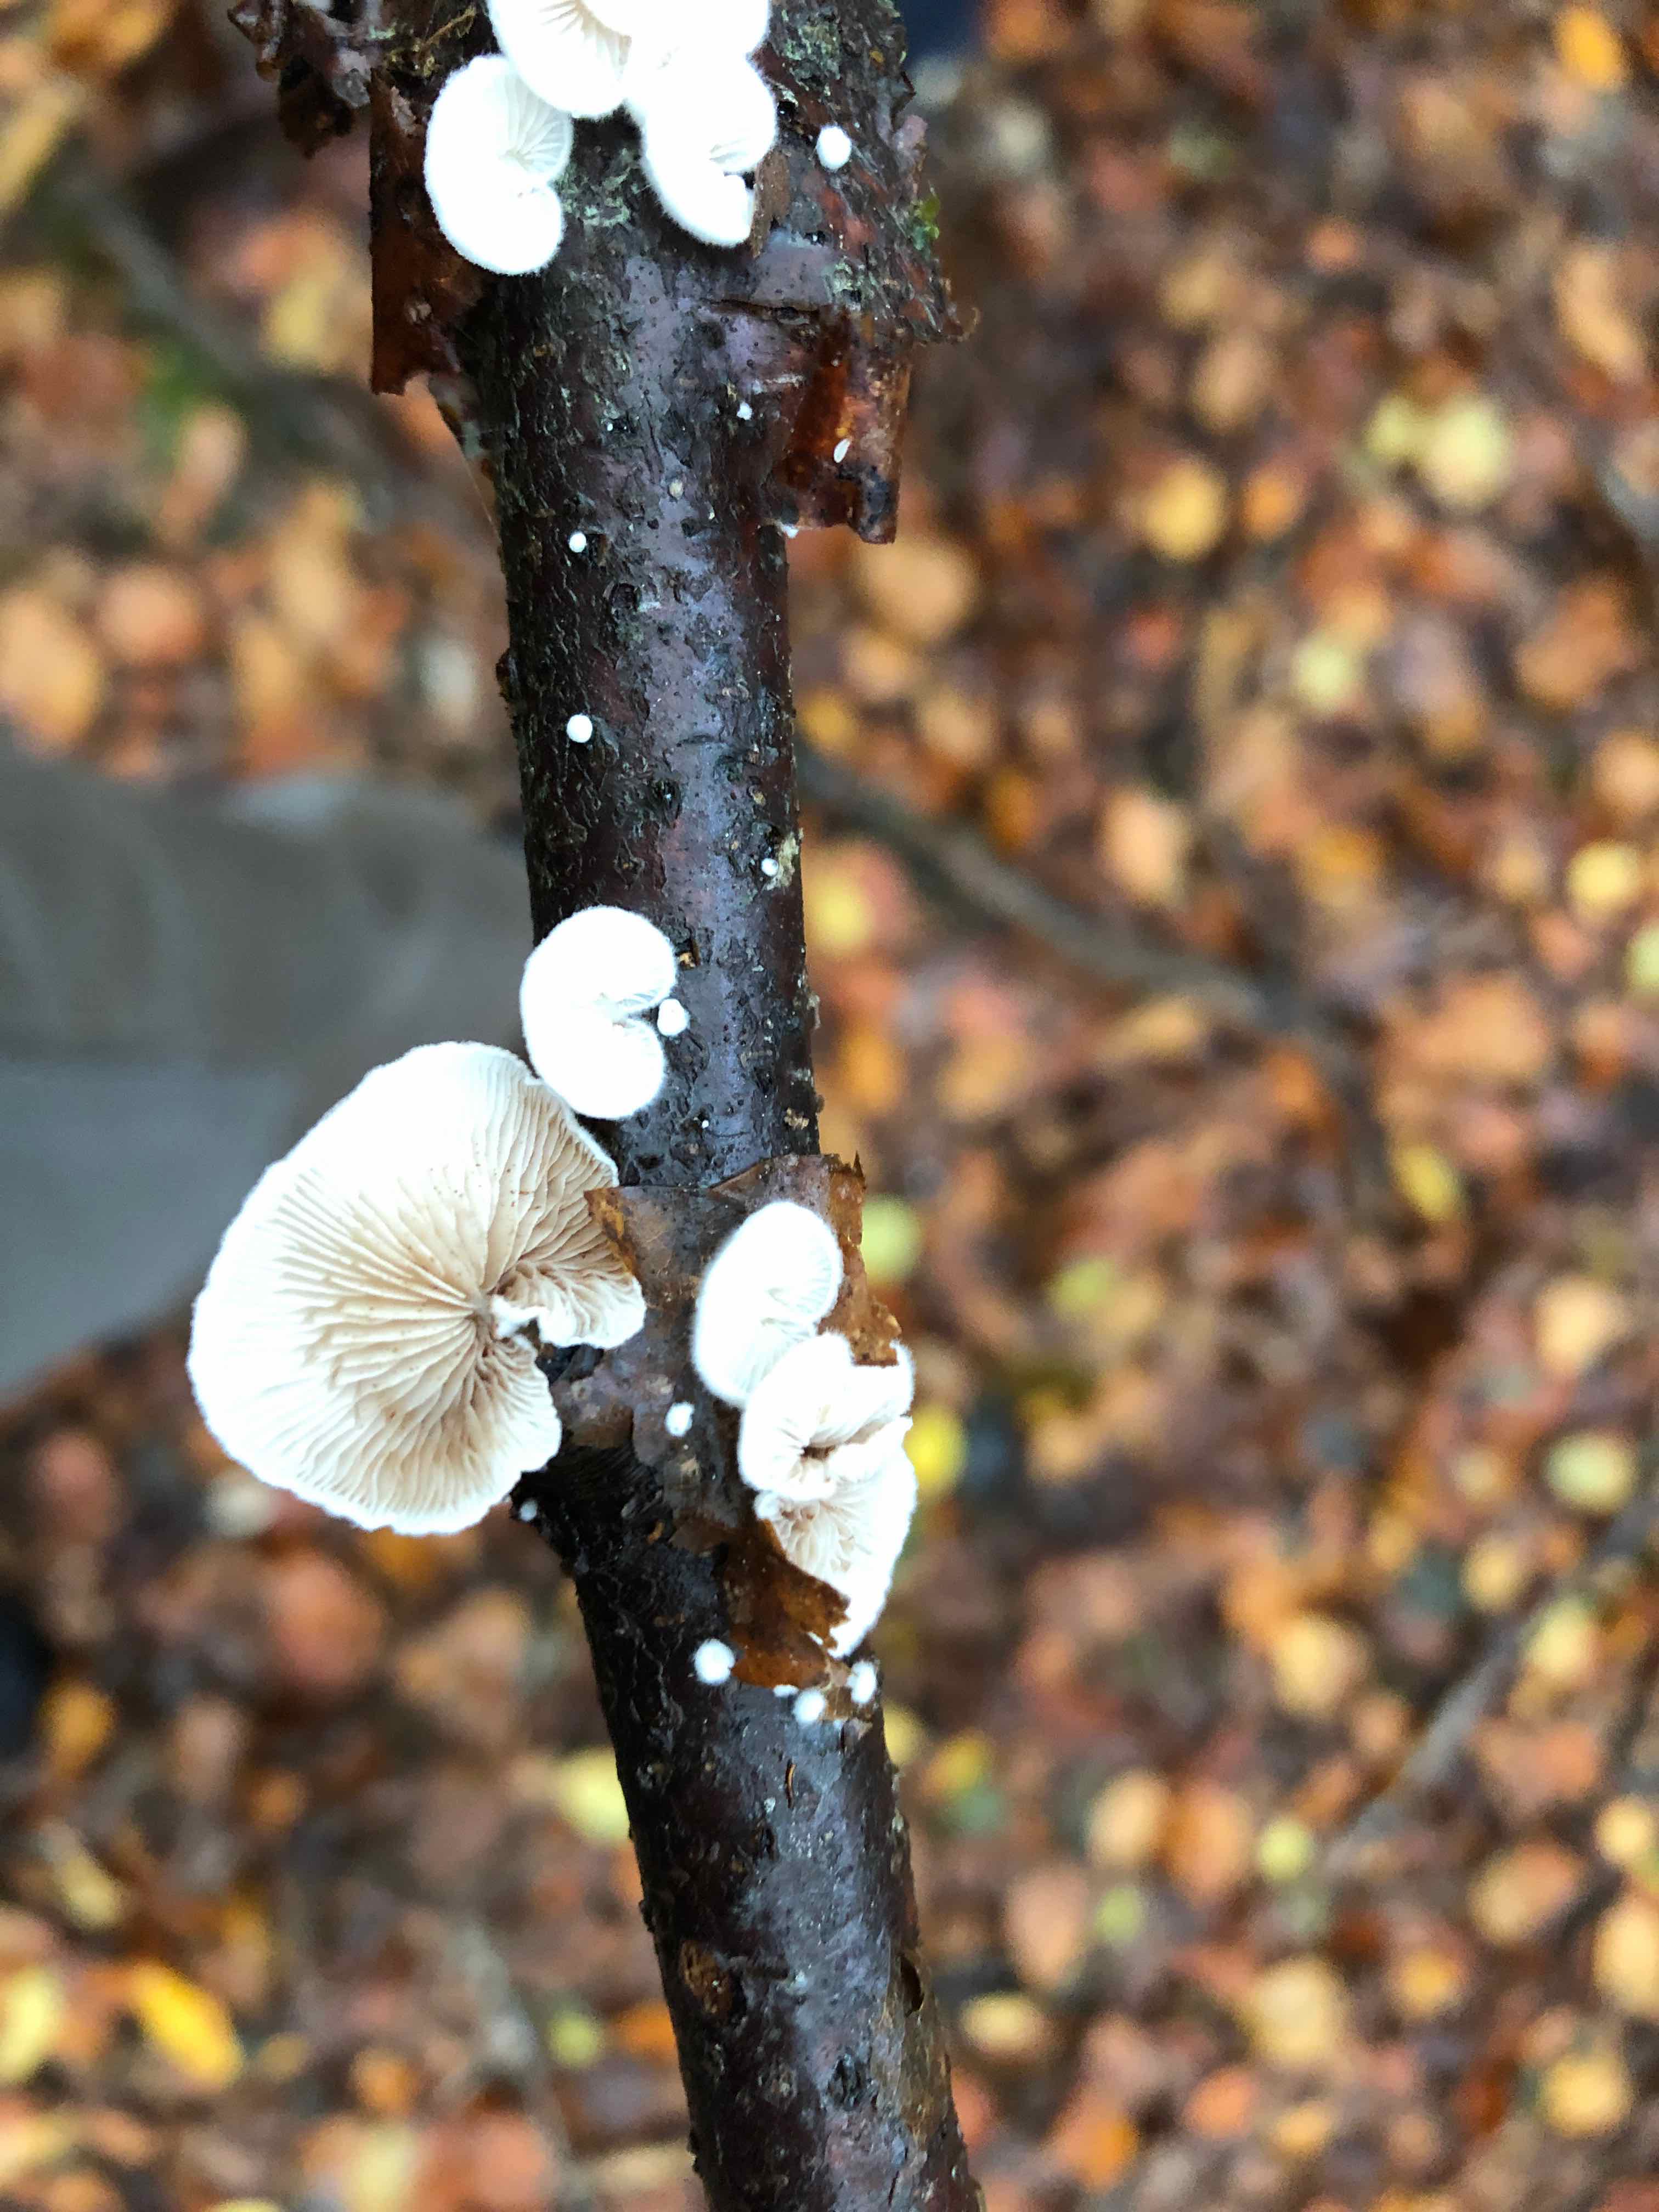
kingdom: Fungi
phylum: Basidiomycota
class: Agaricomycetes
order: Agaricales
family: Crepidotaceae
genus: Crepidotus
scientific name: Crepidotus
